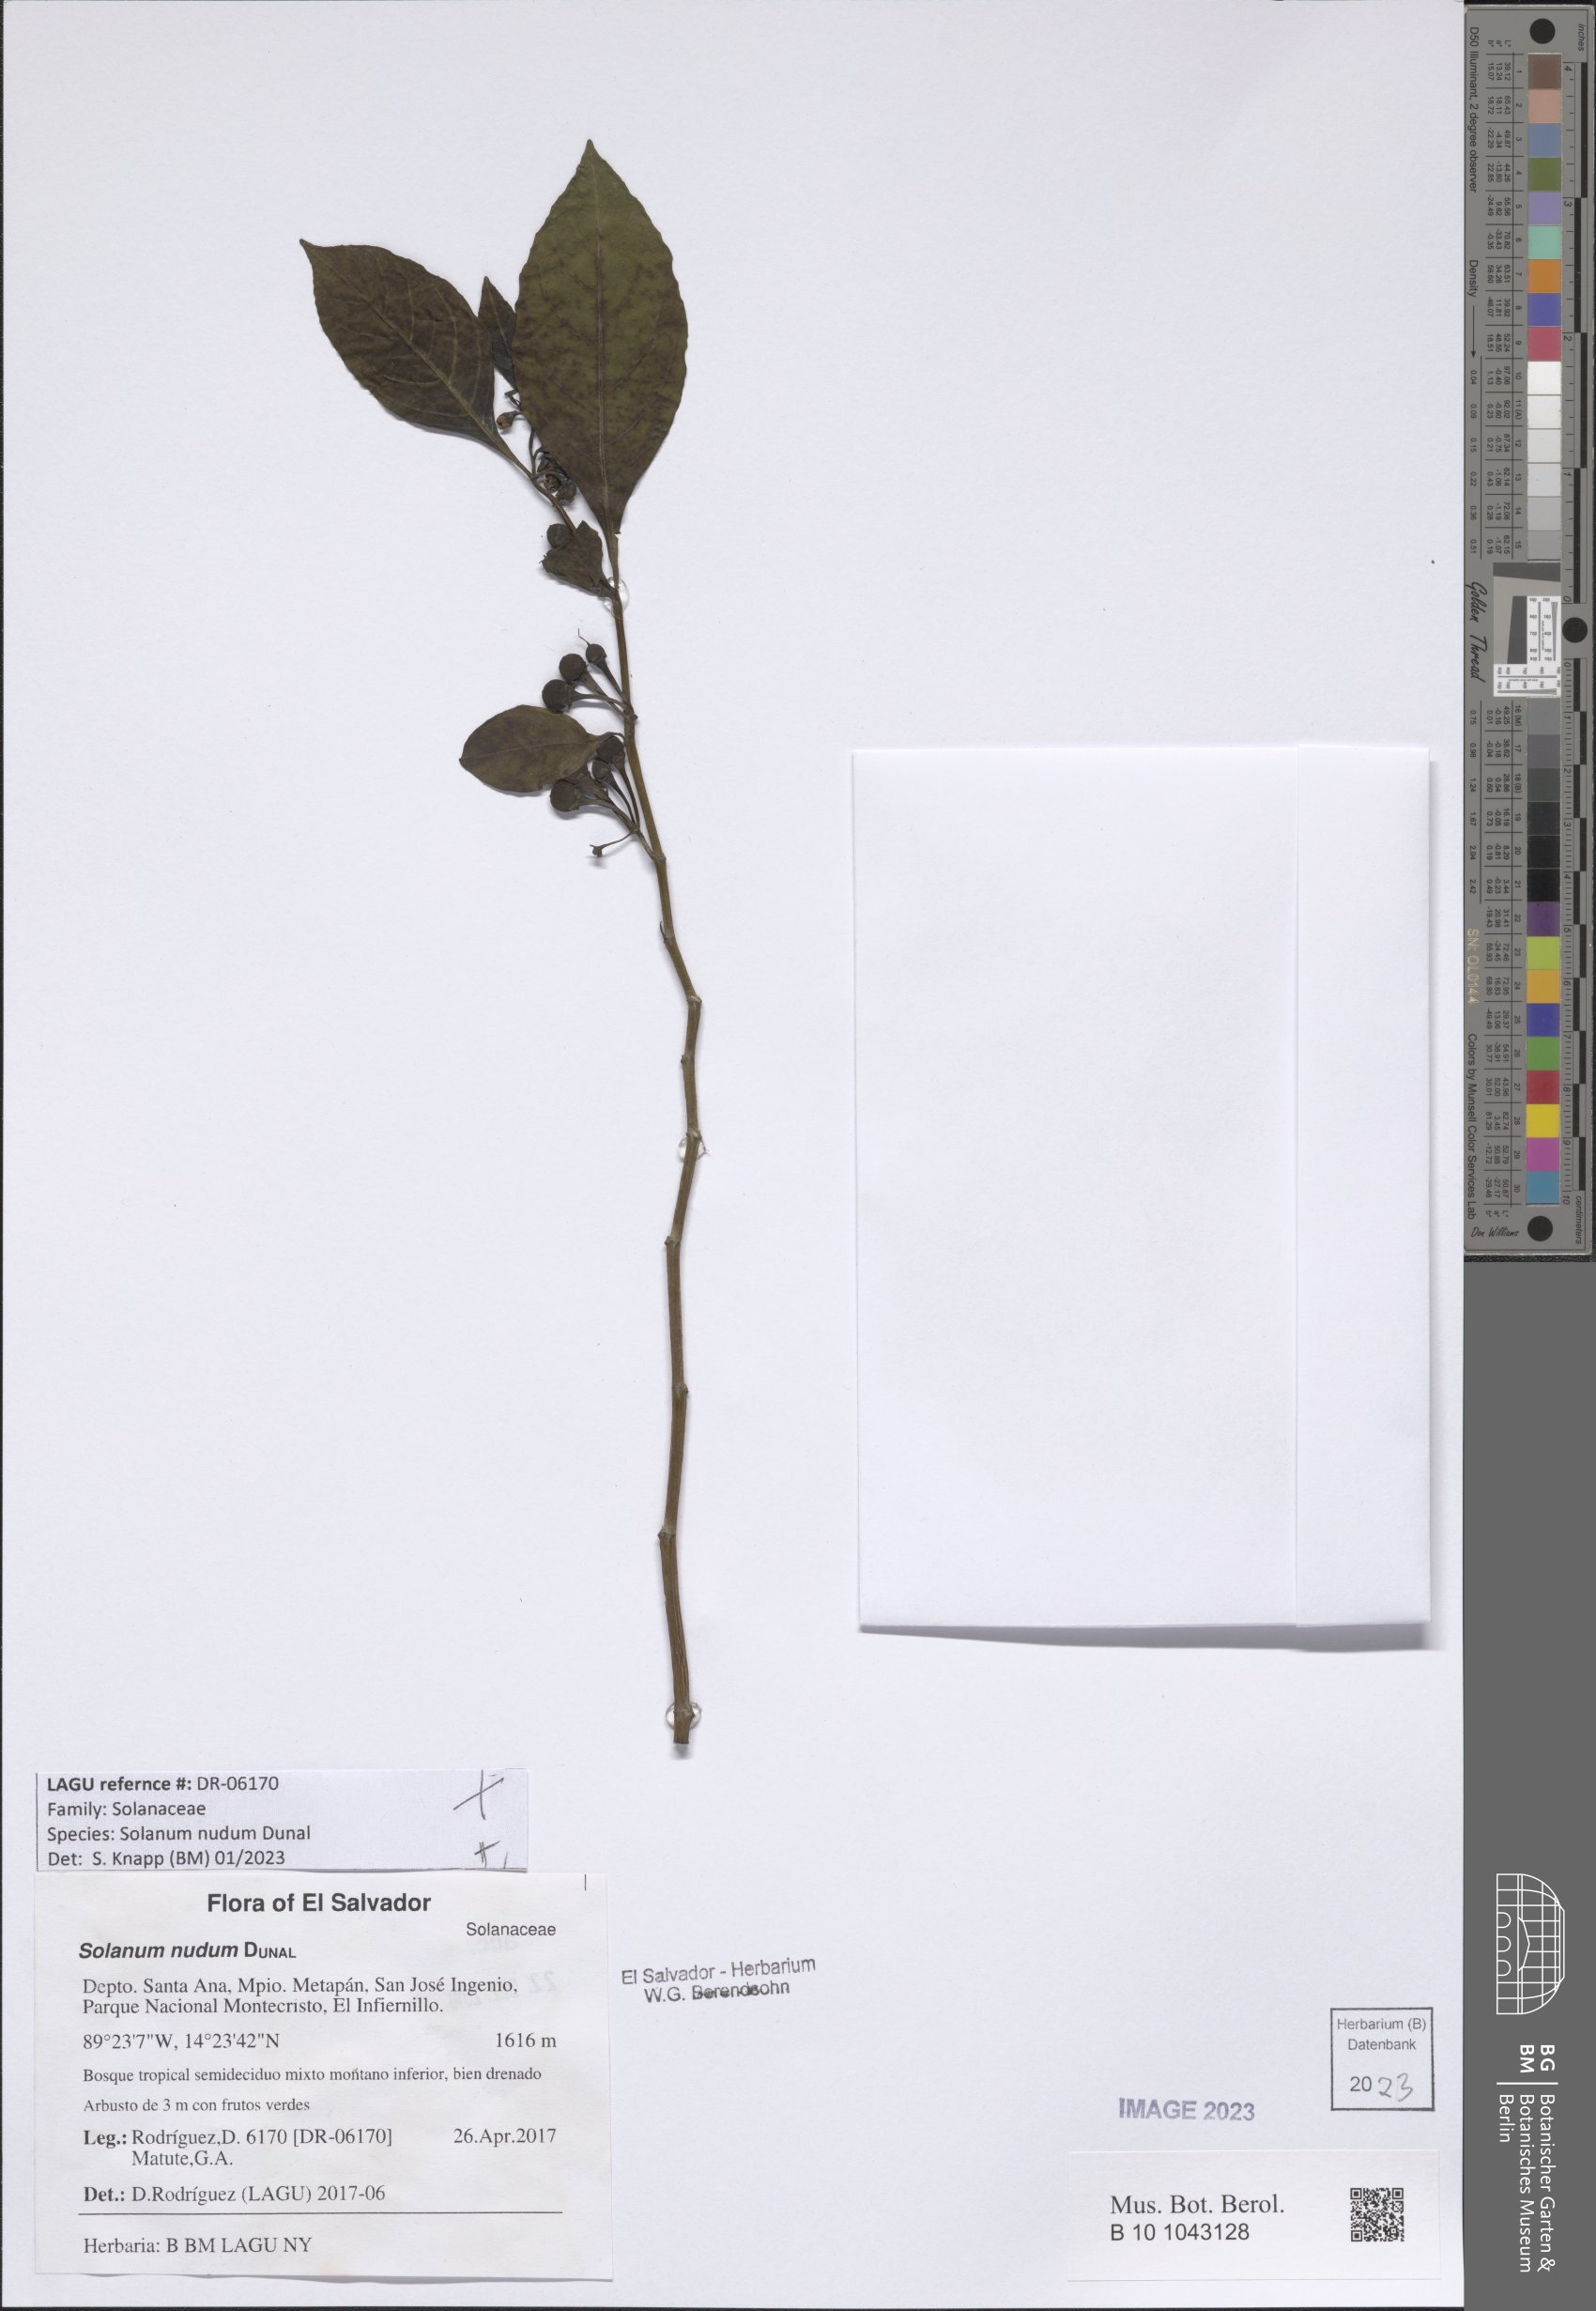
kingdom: Plantae
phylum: Tracheophyta
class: Magnoliopsida
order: Solanales
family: Solanaceae
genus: Solanum
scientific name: Solanum nudum
